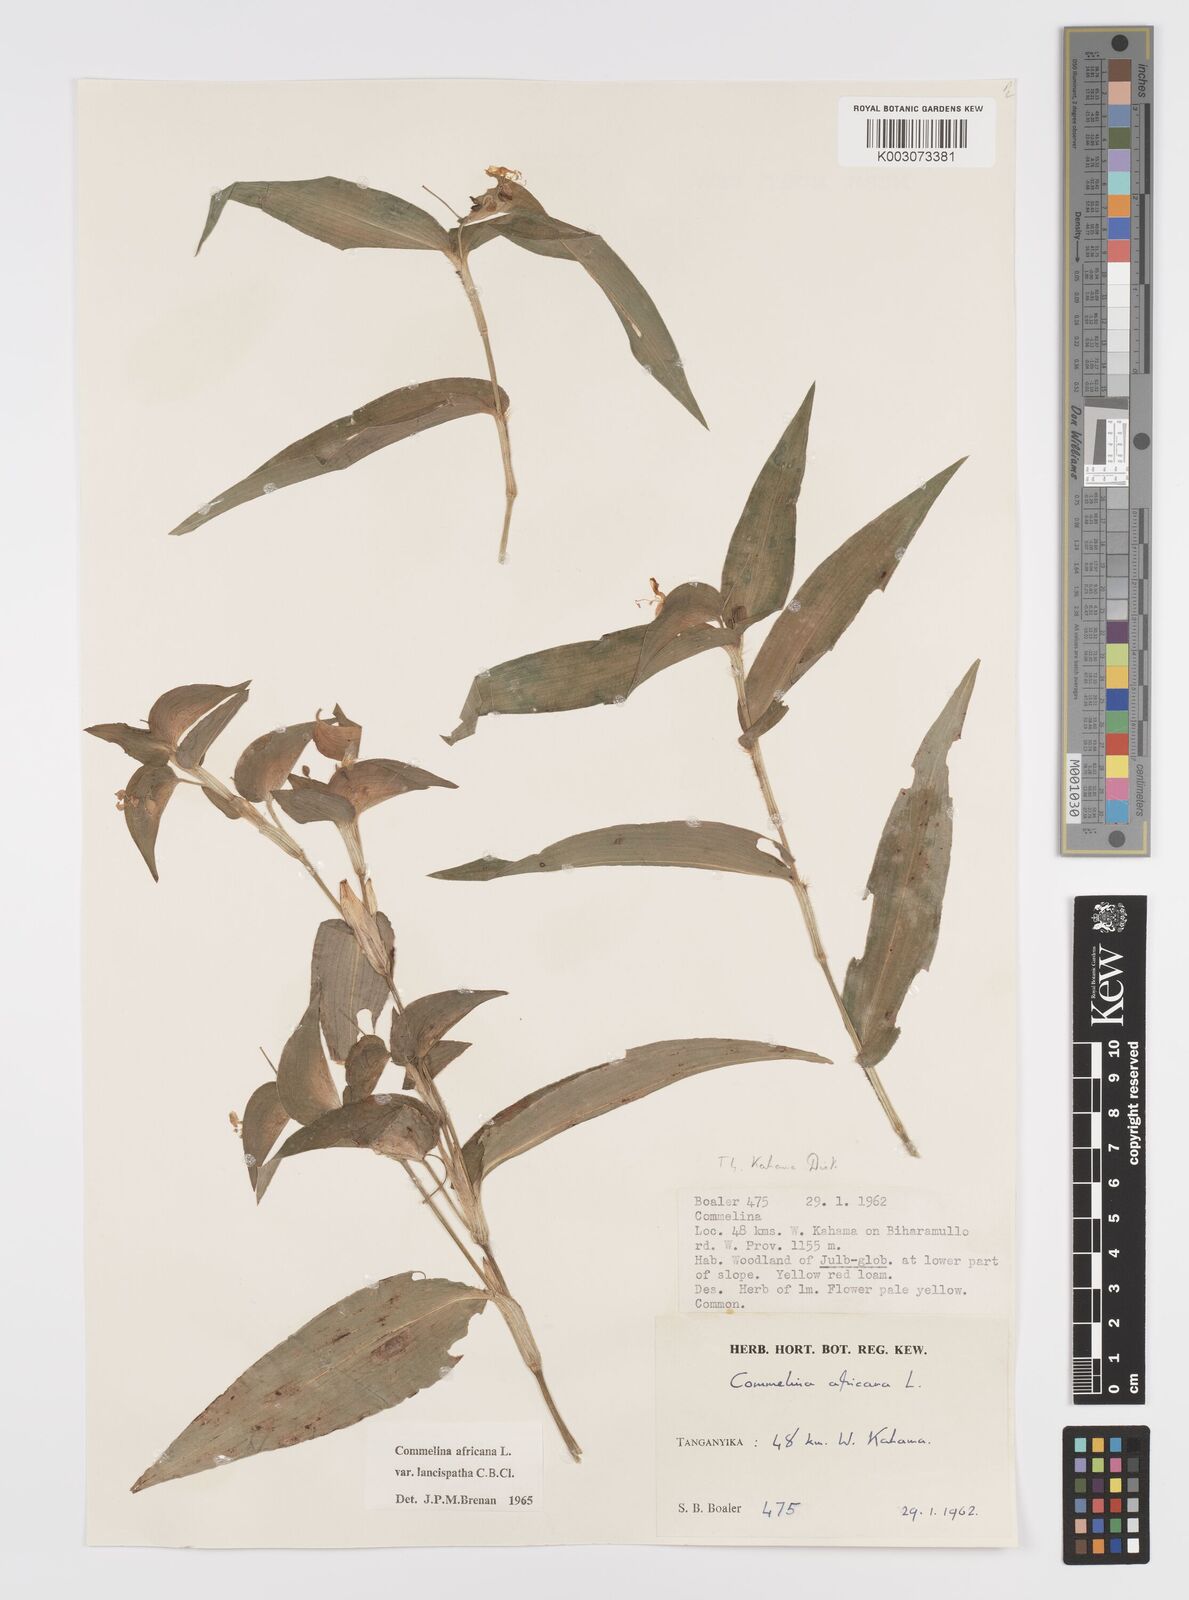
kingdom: Plantae
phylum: Tracheophyta
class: Liliopsida
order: Commelinales
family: Commelinaceae
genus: Commelina
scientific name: Commelina africana
